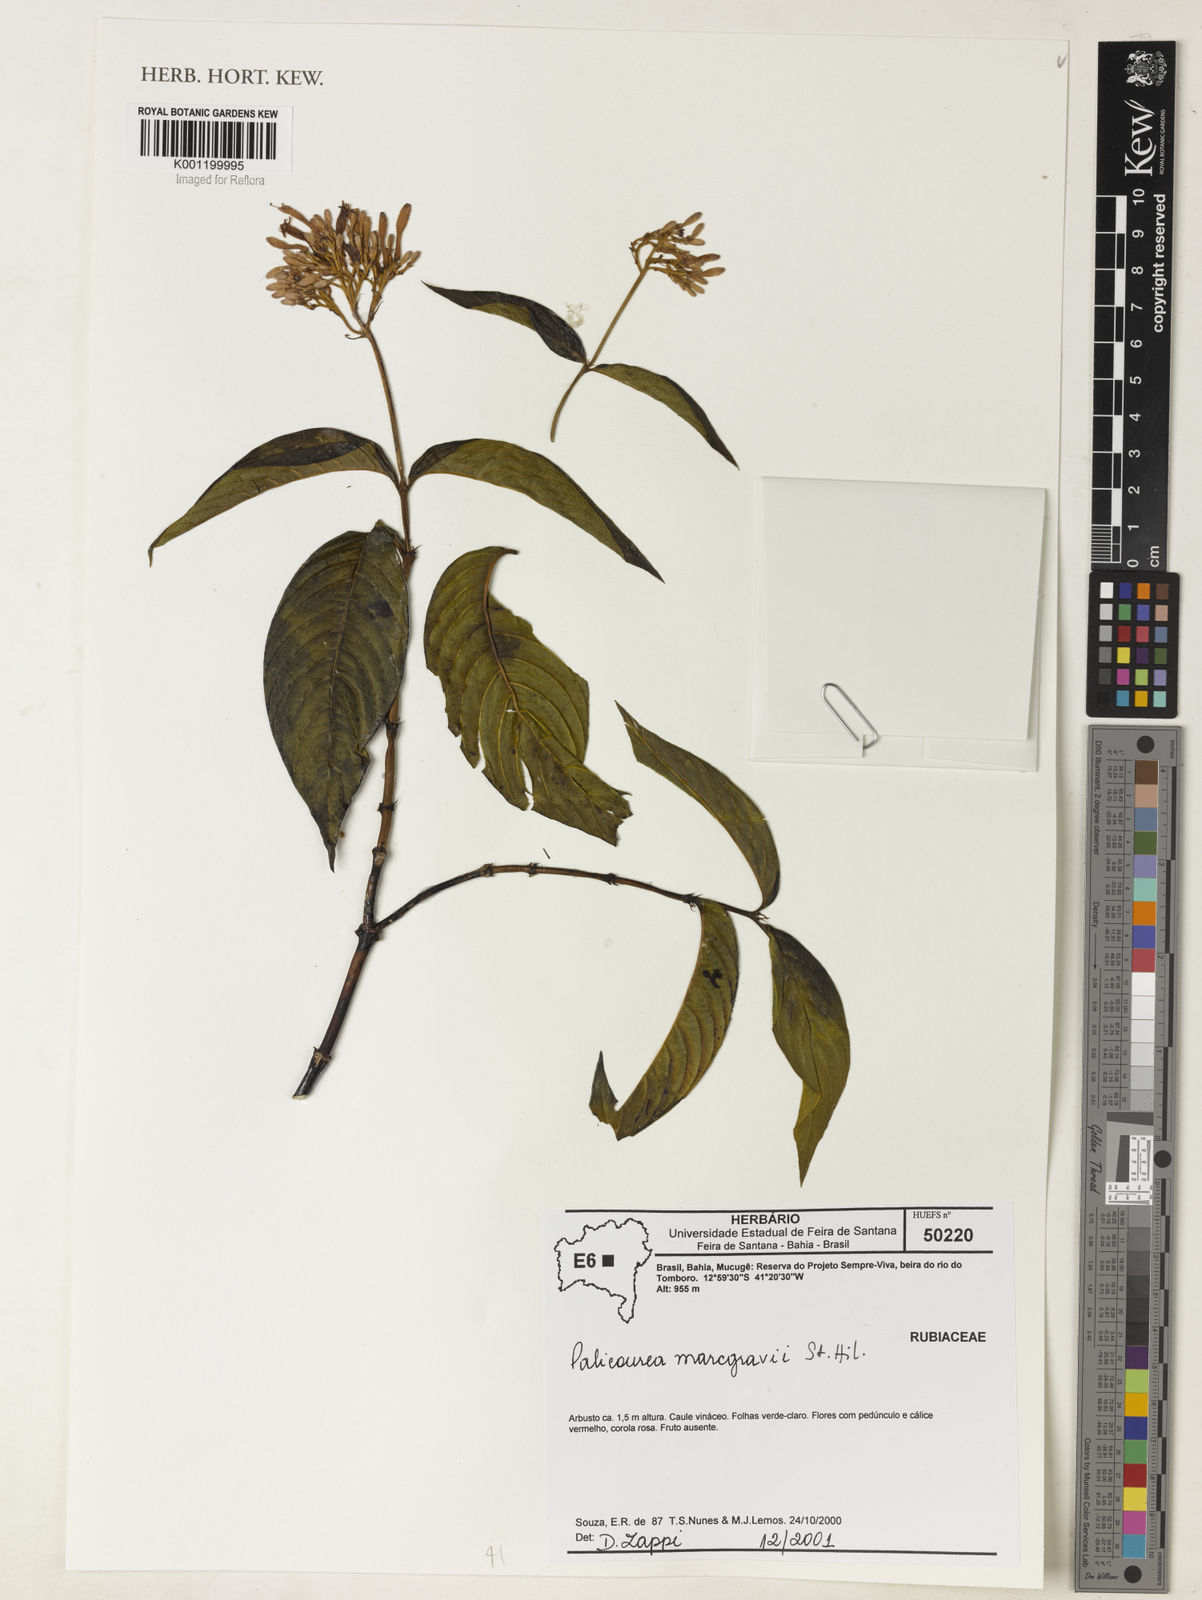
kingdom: Plantae
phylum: Tracheophyta
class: Magnoliopsida
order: Gentianales
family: Rubiaceae
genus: Palicourea
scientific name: Palicourea marcgravii
